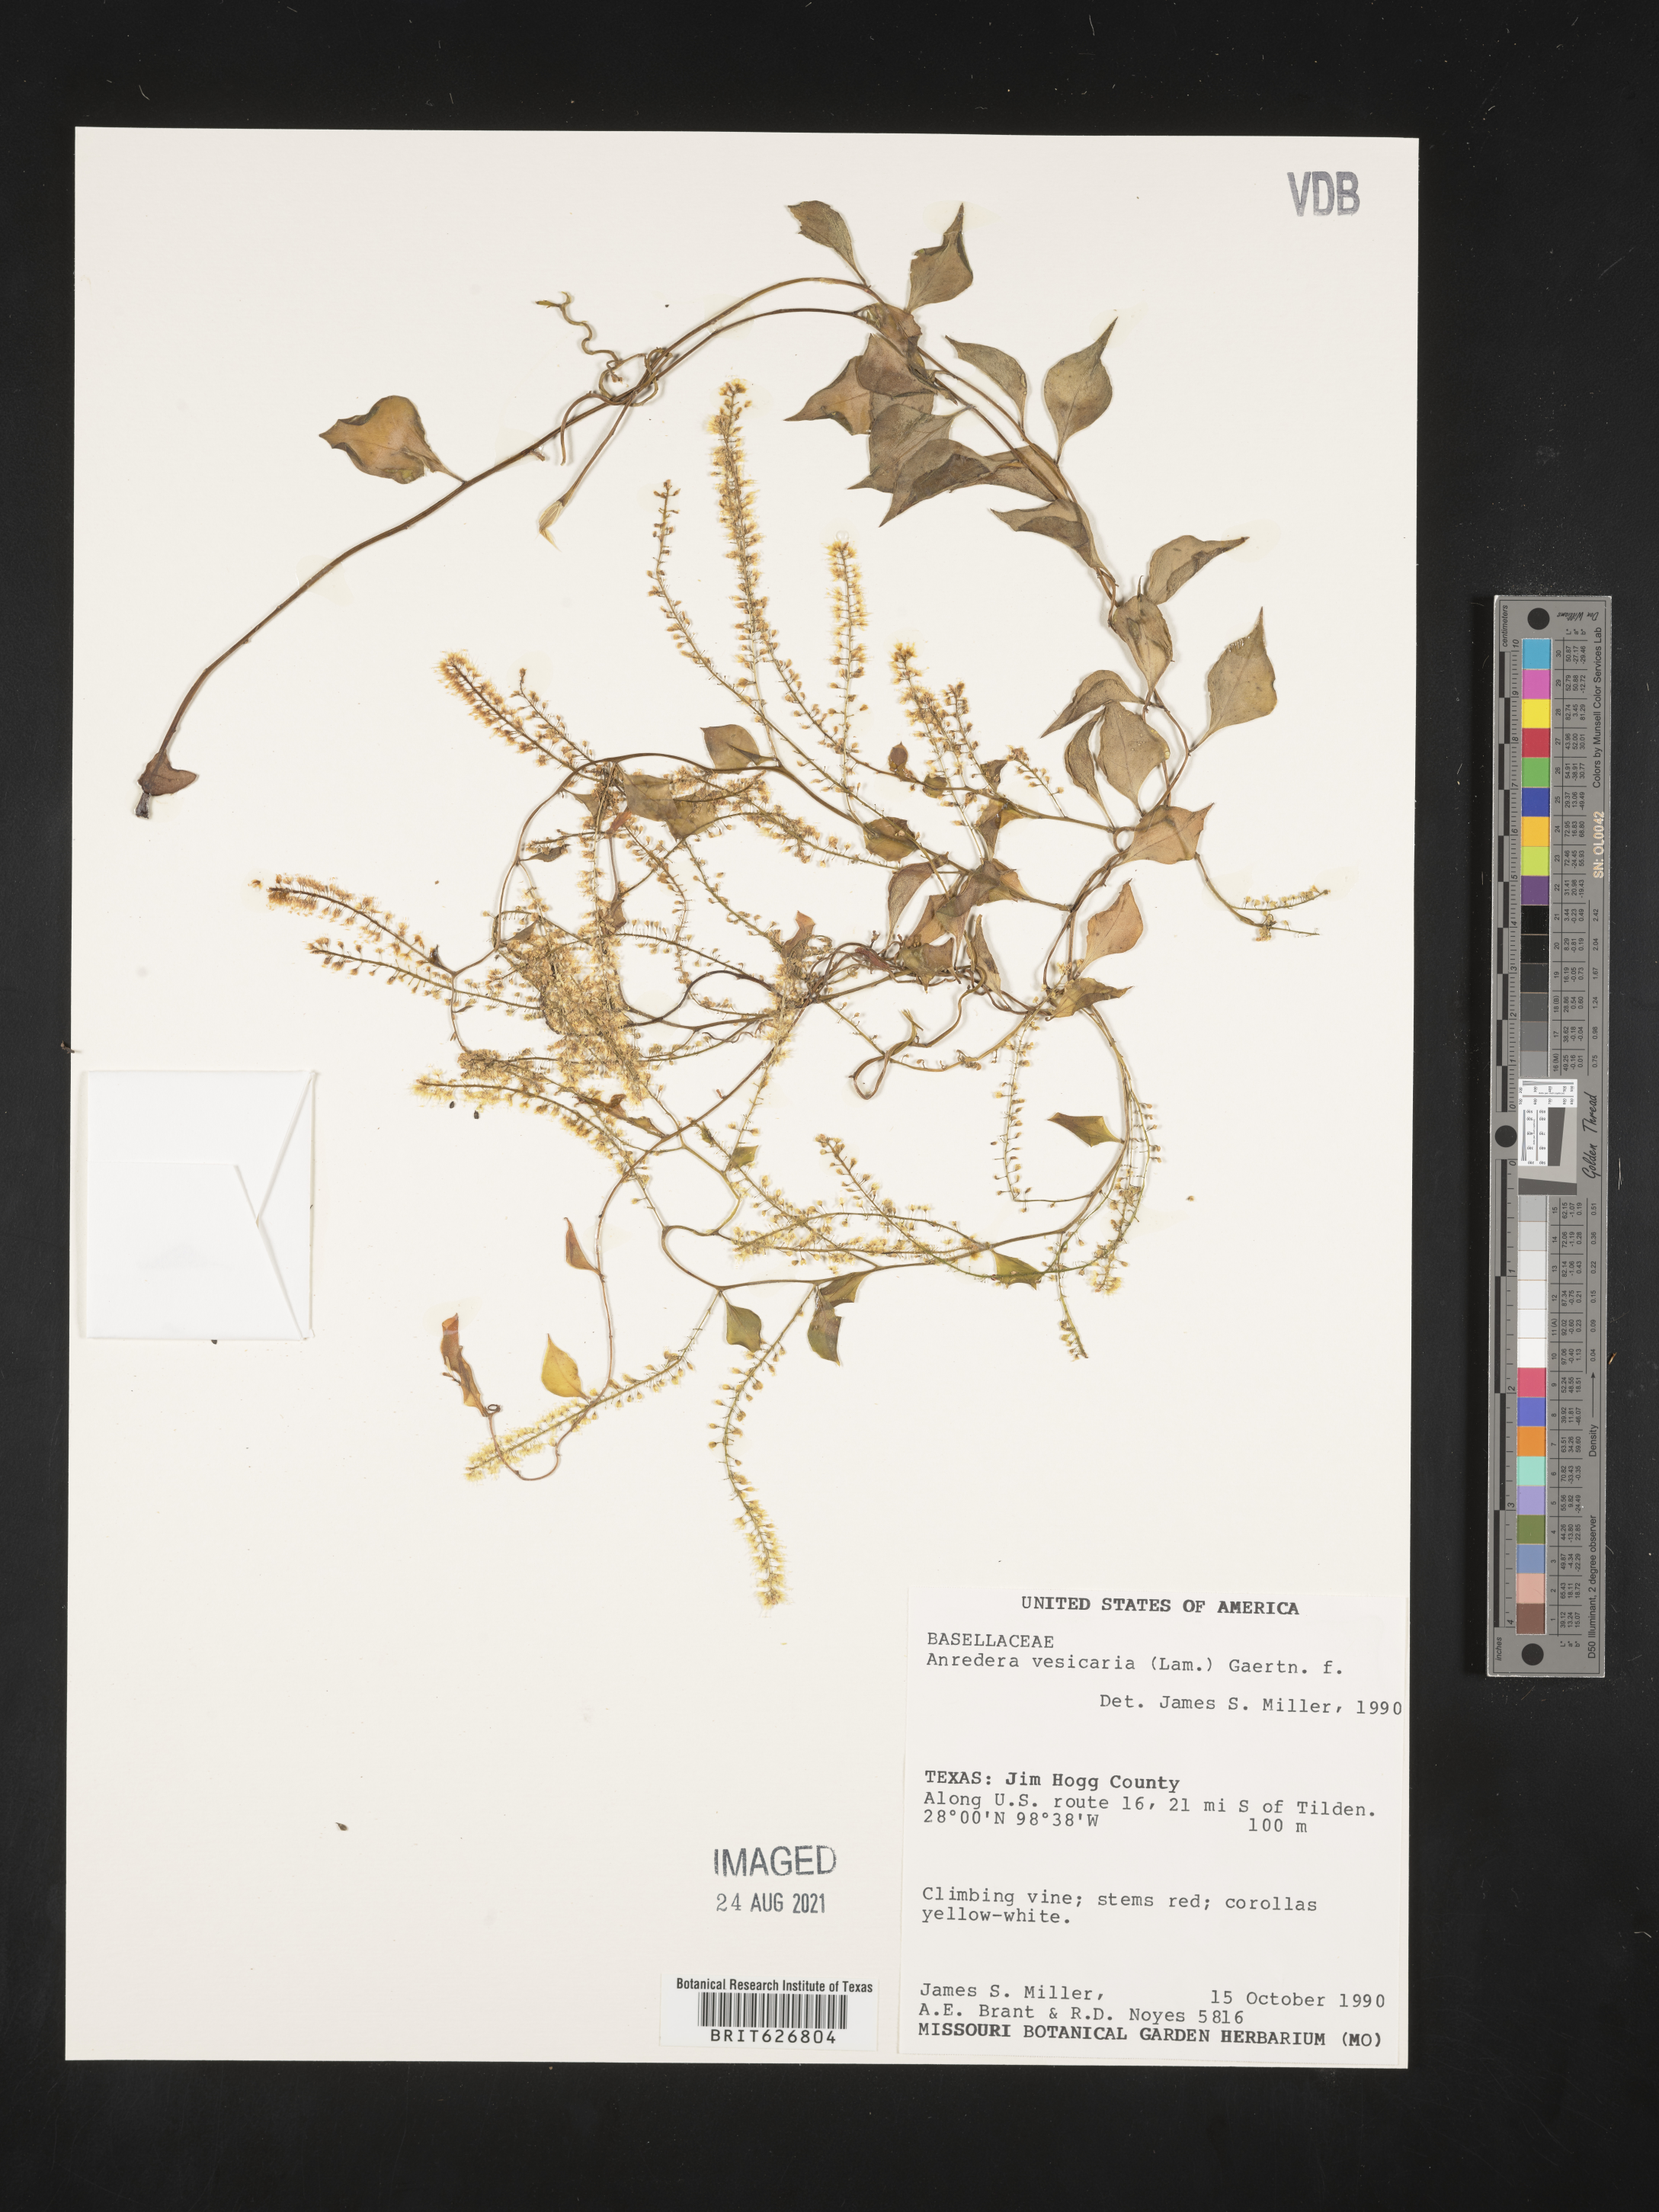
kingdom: Plantae
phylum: Tracheophyta
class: Magnoliopsida
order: Caryophyllales
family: Basellaceae
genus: Anredera
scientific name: Anredera vesicaria
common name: Sacasile
